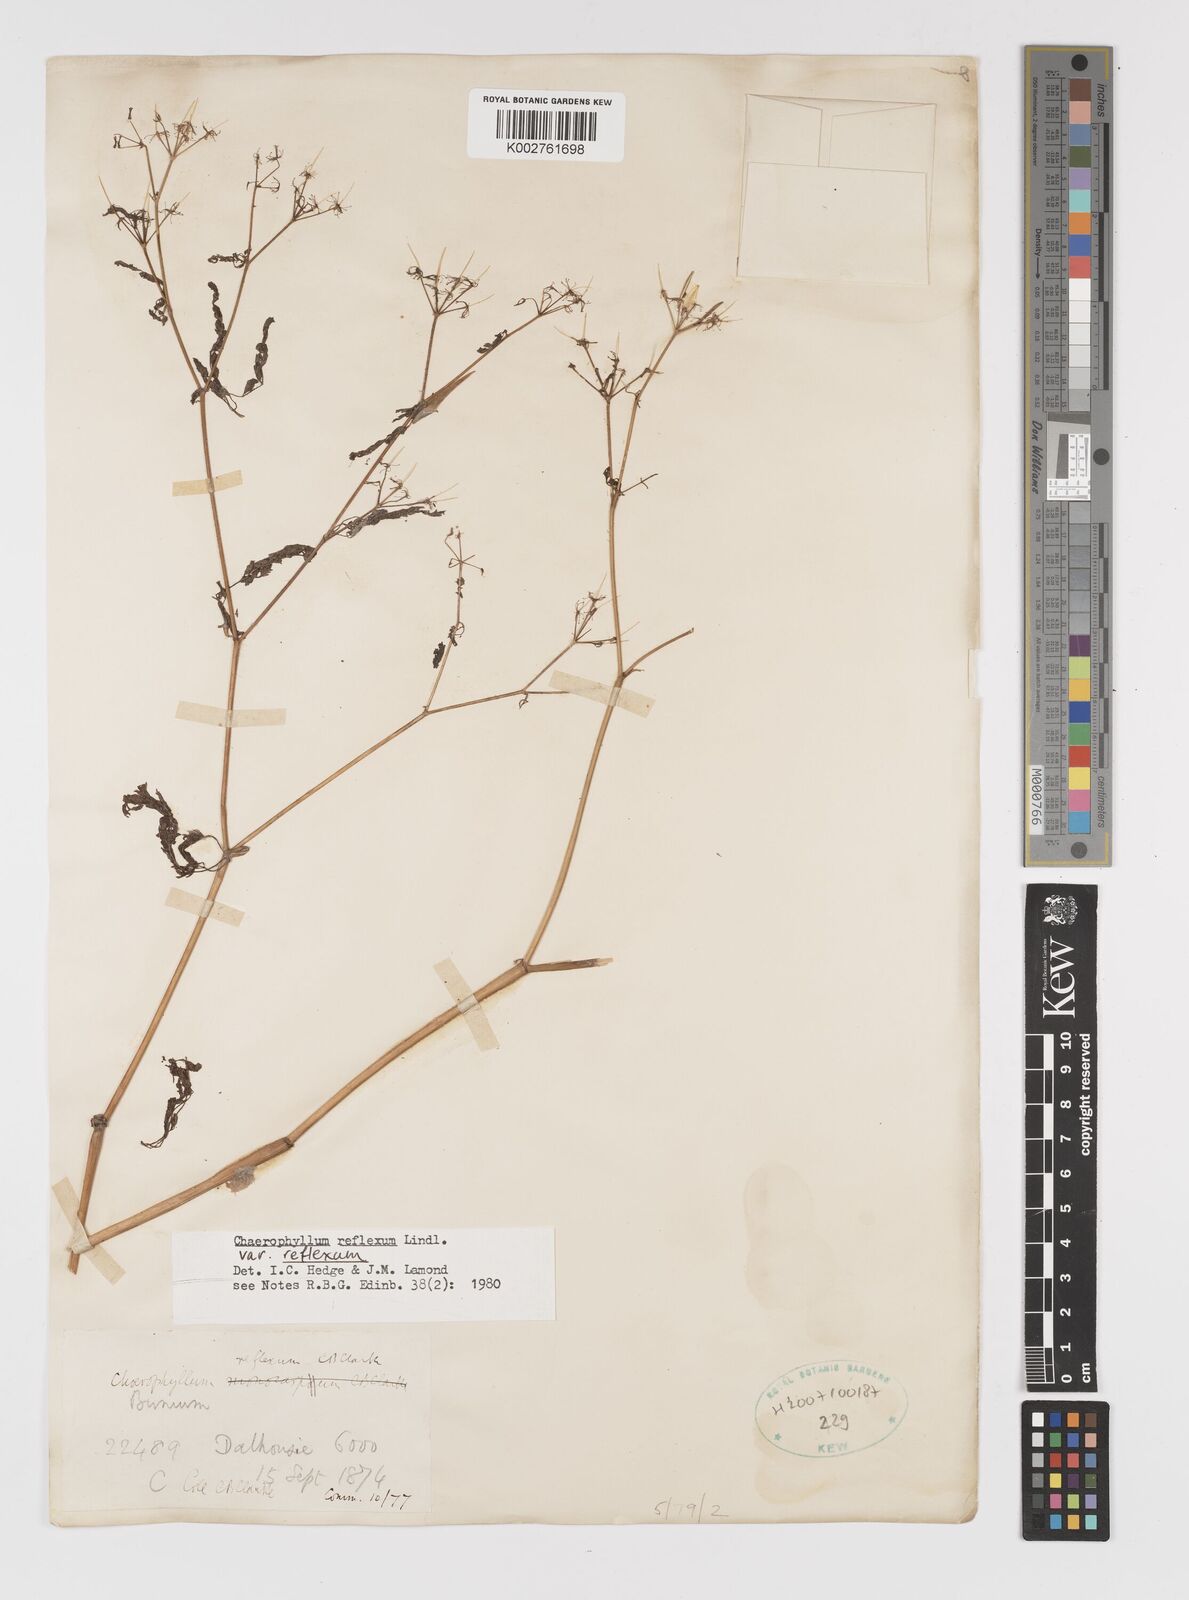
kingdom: Plantae
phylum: Tracheophyta
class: Magnoliopsida
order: Apiales
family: Apiaceae
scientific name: Apiaceae
